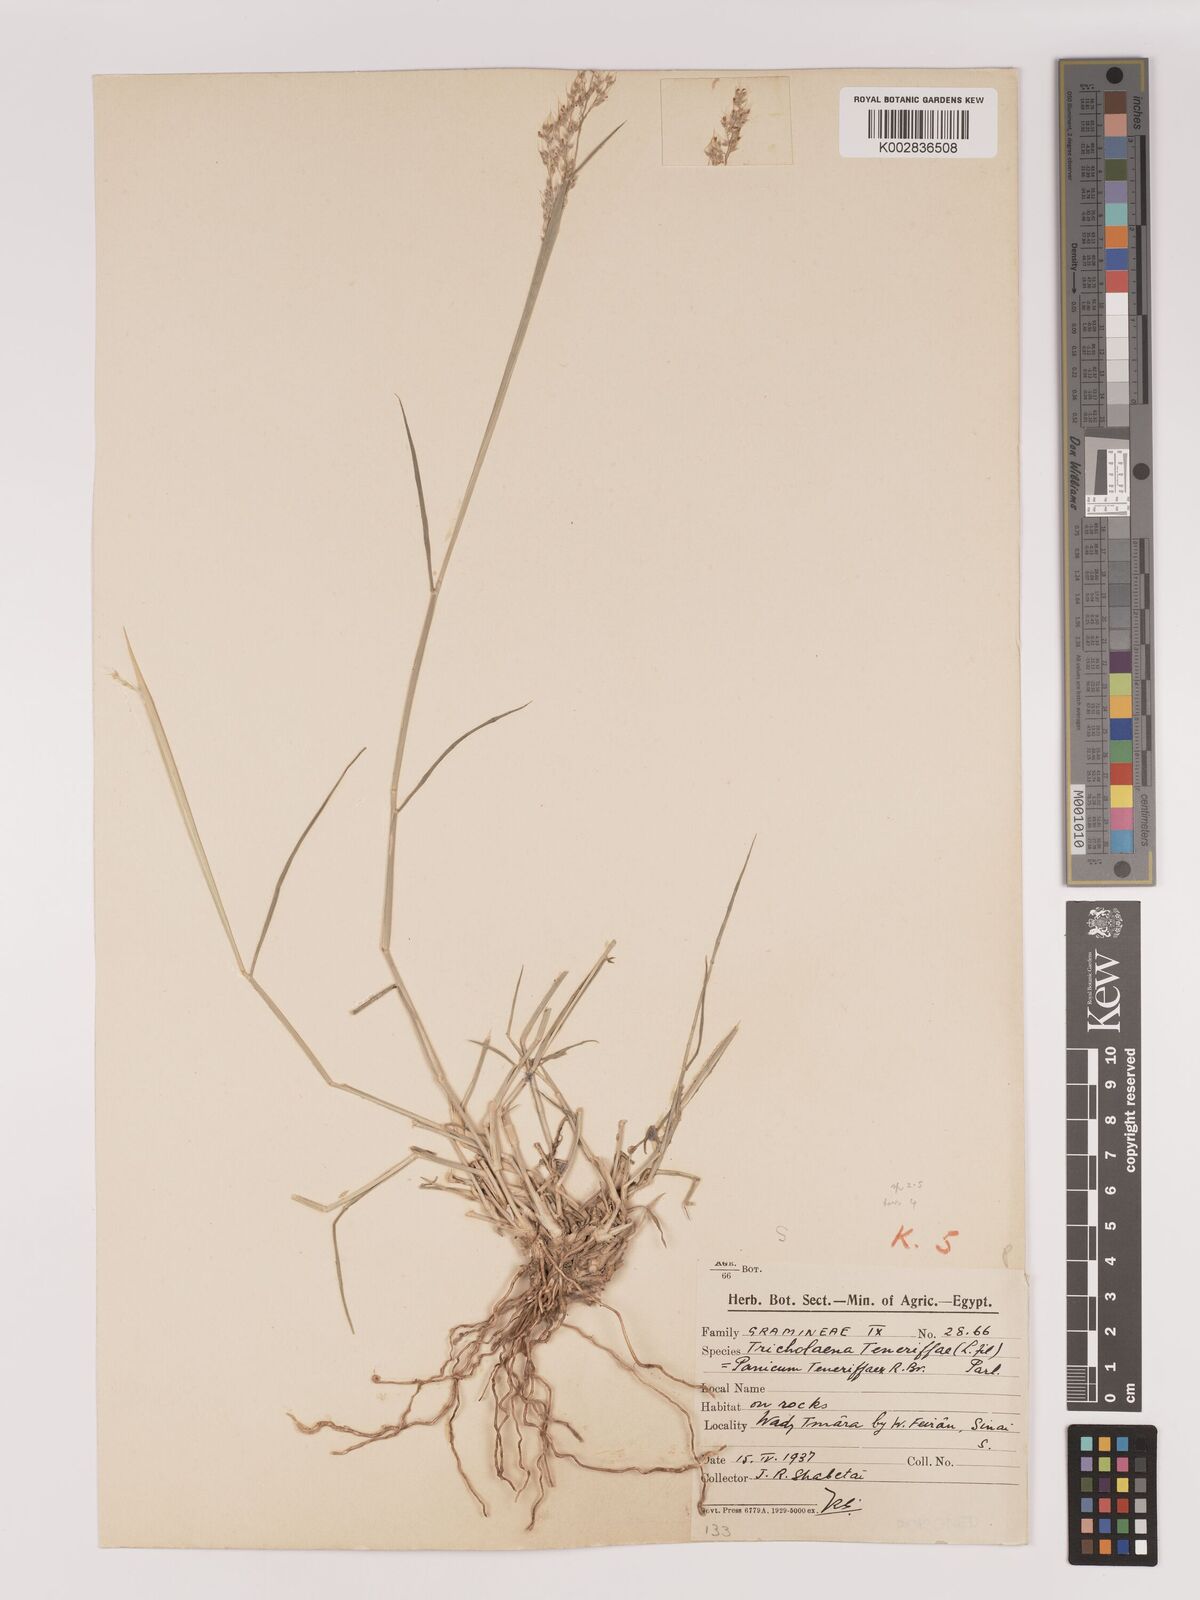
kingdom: Plantae
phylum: Tracheophyta
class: Liliopsida
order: Poales
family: Poaceae
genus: Tricholaena
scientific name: Tricholaena teneriffae
